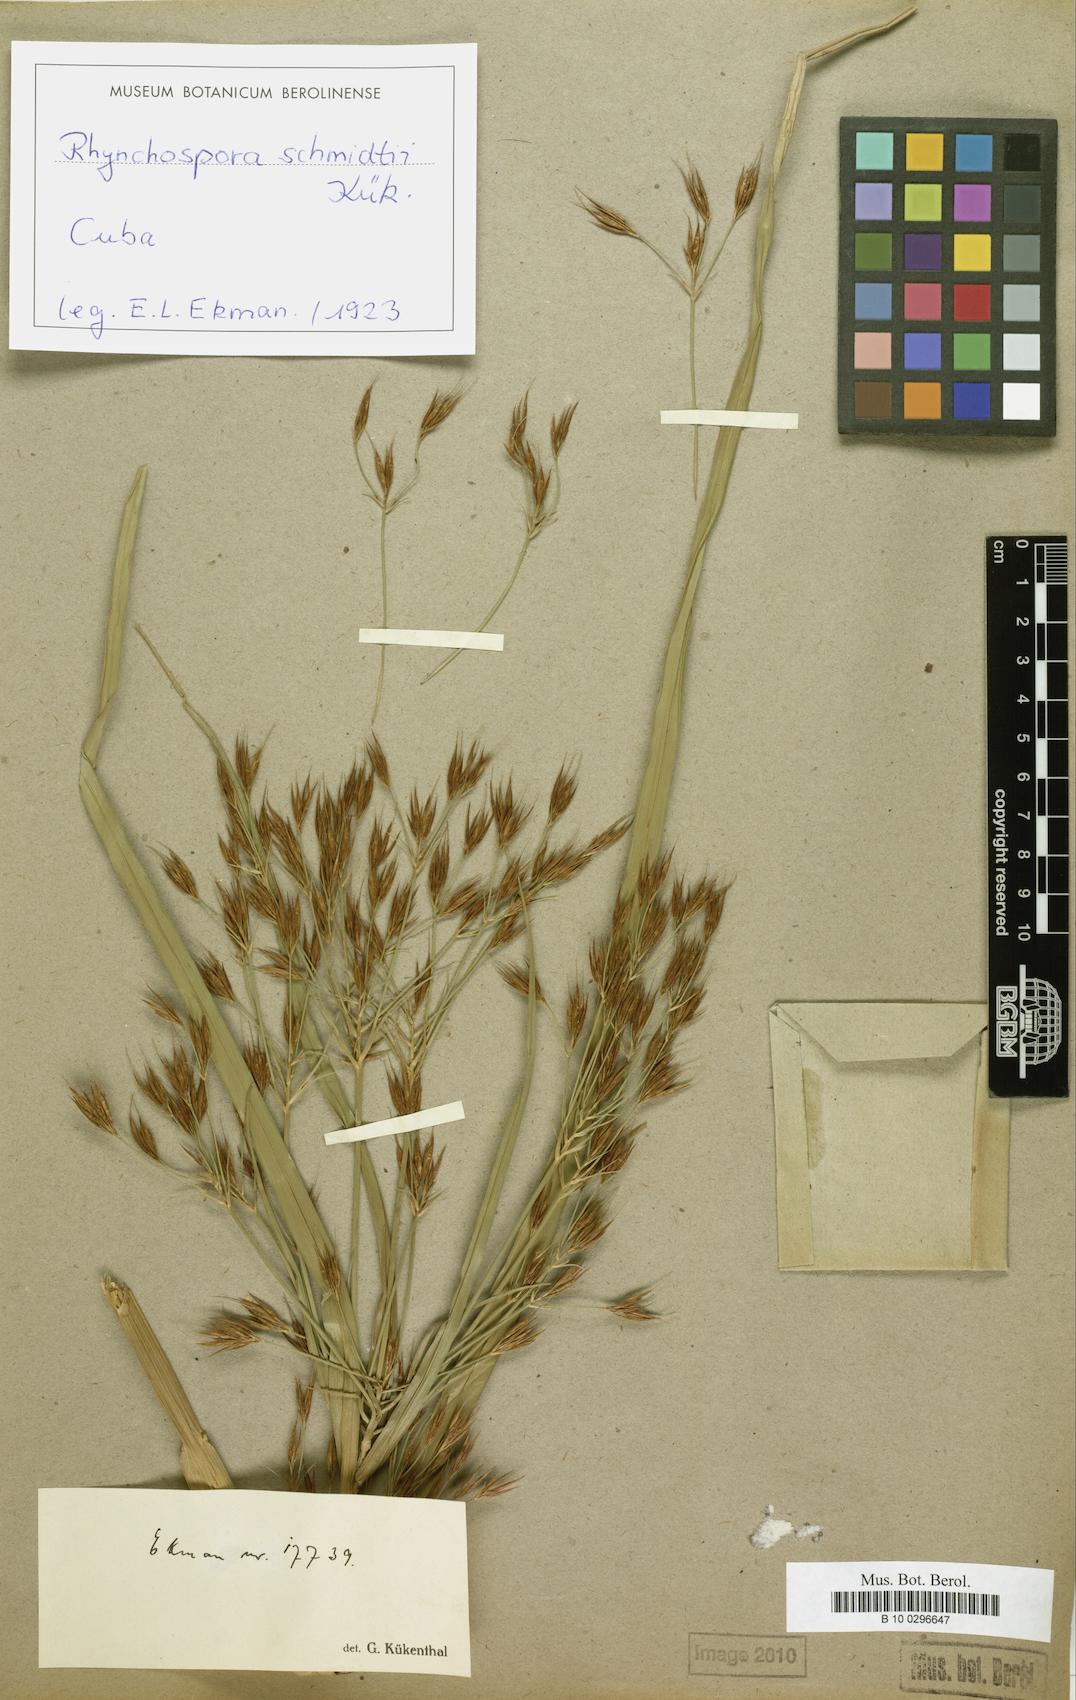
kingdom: Plantae
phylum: Tracheophyta
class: Liliopsida
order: Poales
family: Cyperaceae
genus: Rhynchospora
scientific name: Rhynchospora schmidtii
